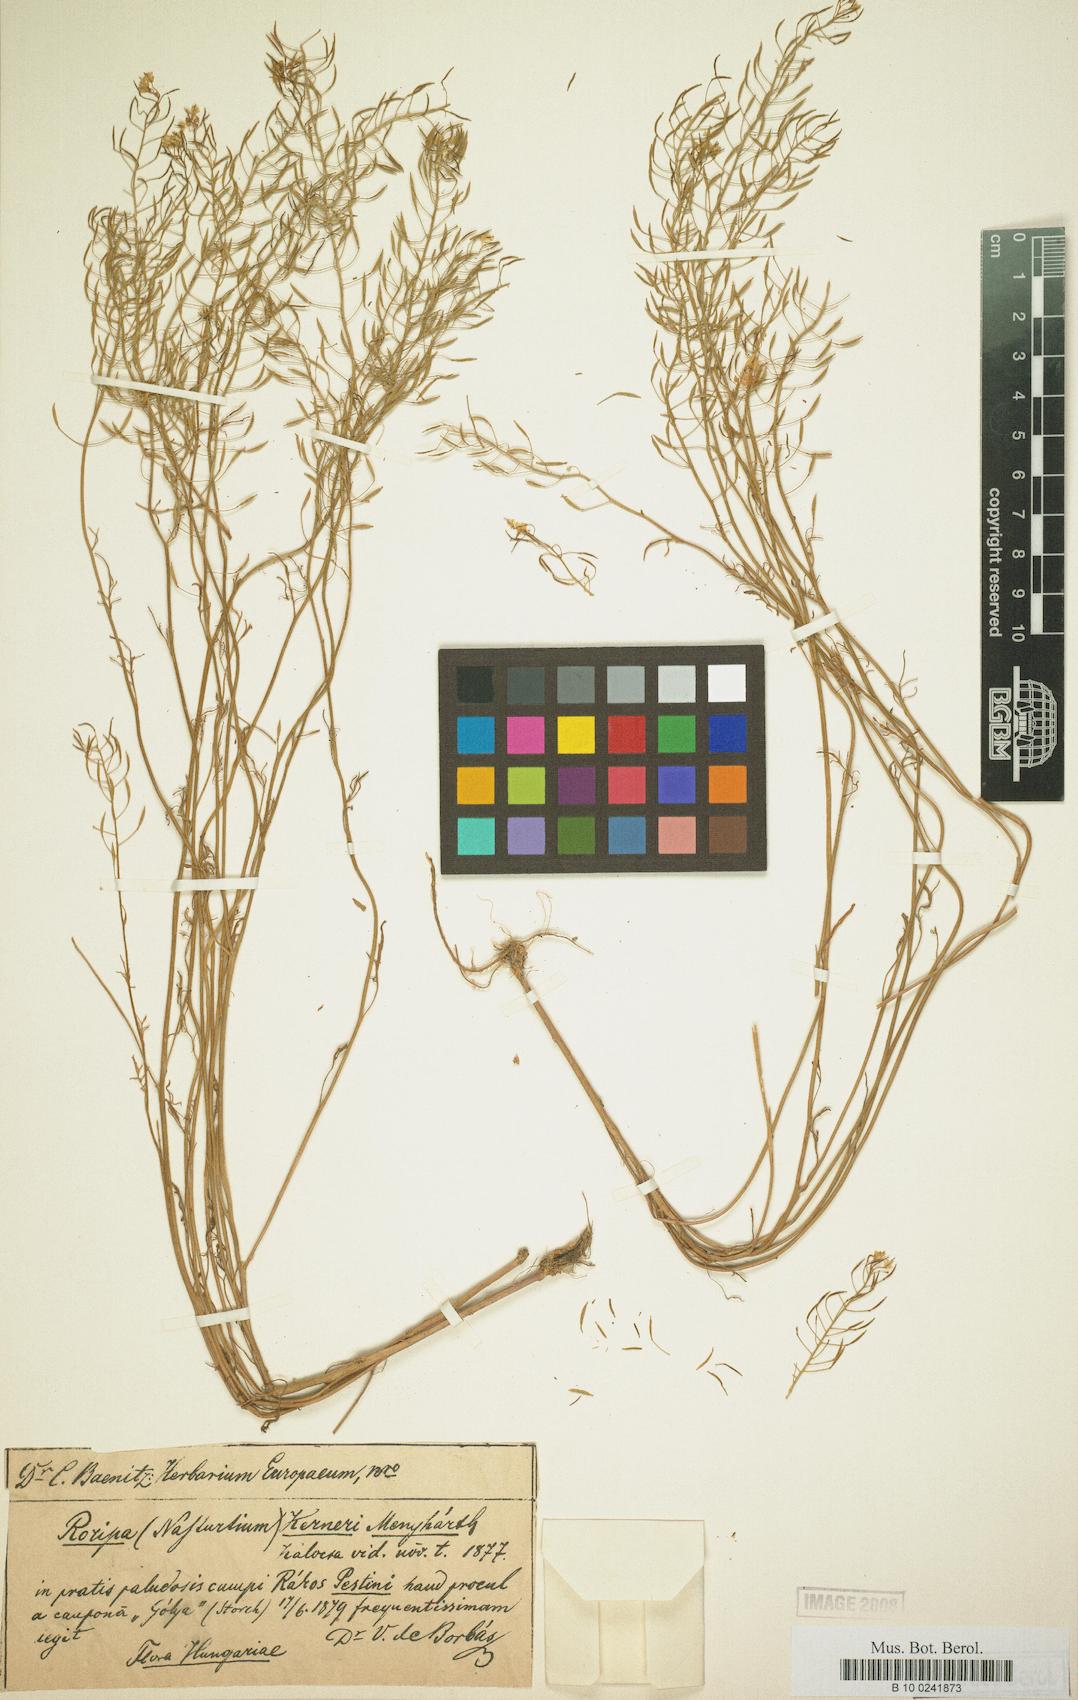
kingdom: Plantae
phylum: Tracheophyta
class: Magnoliopsida
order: Brassicales
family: Brassicaceae
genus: Nasturtium
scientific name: Nasturtium kerneri
